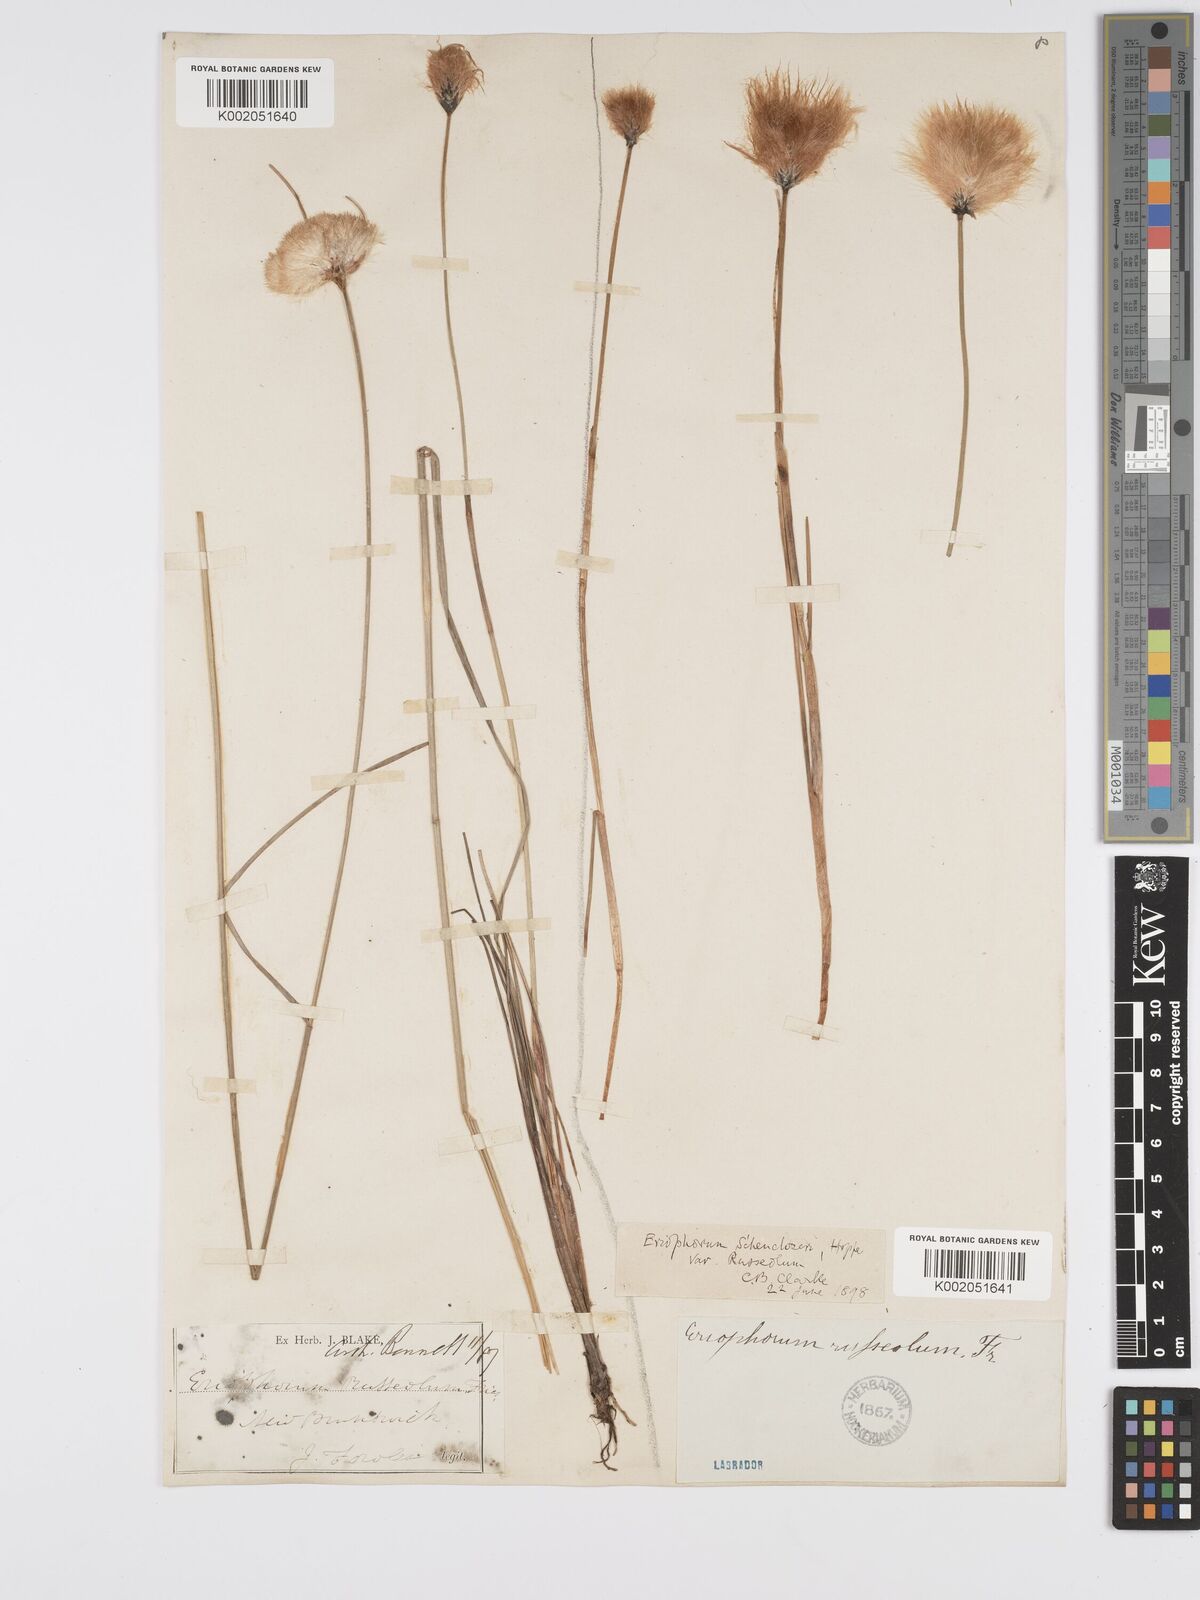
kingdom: Plantae
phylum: Tracheophyta
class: Liliopsida
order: Poales
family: Cyperaceae
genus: Eriophorum
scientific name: Eriophorum chamissonis
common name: Chamisso's cottongrass
